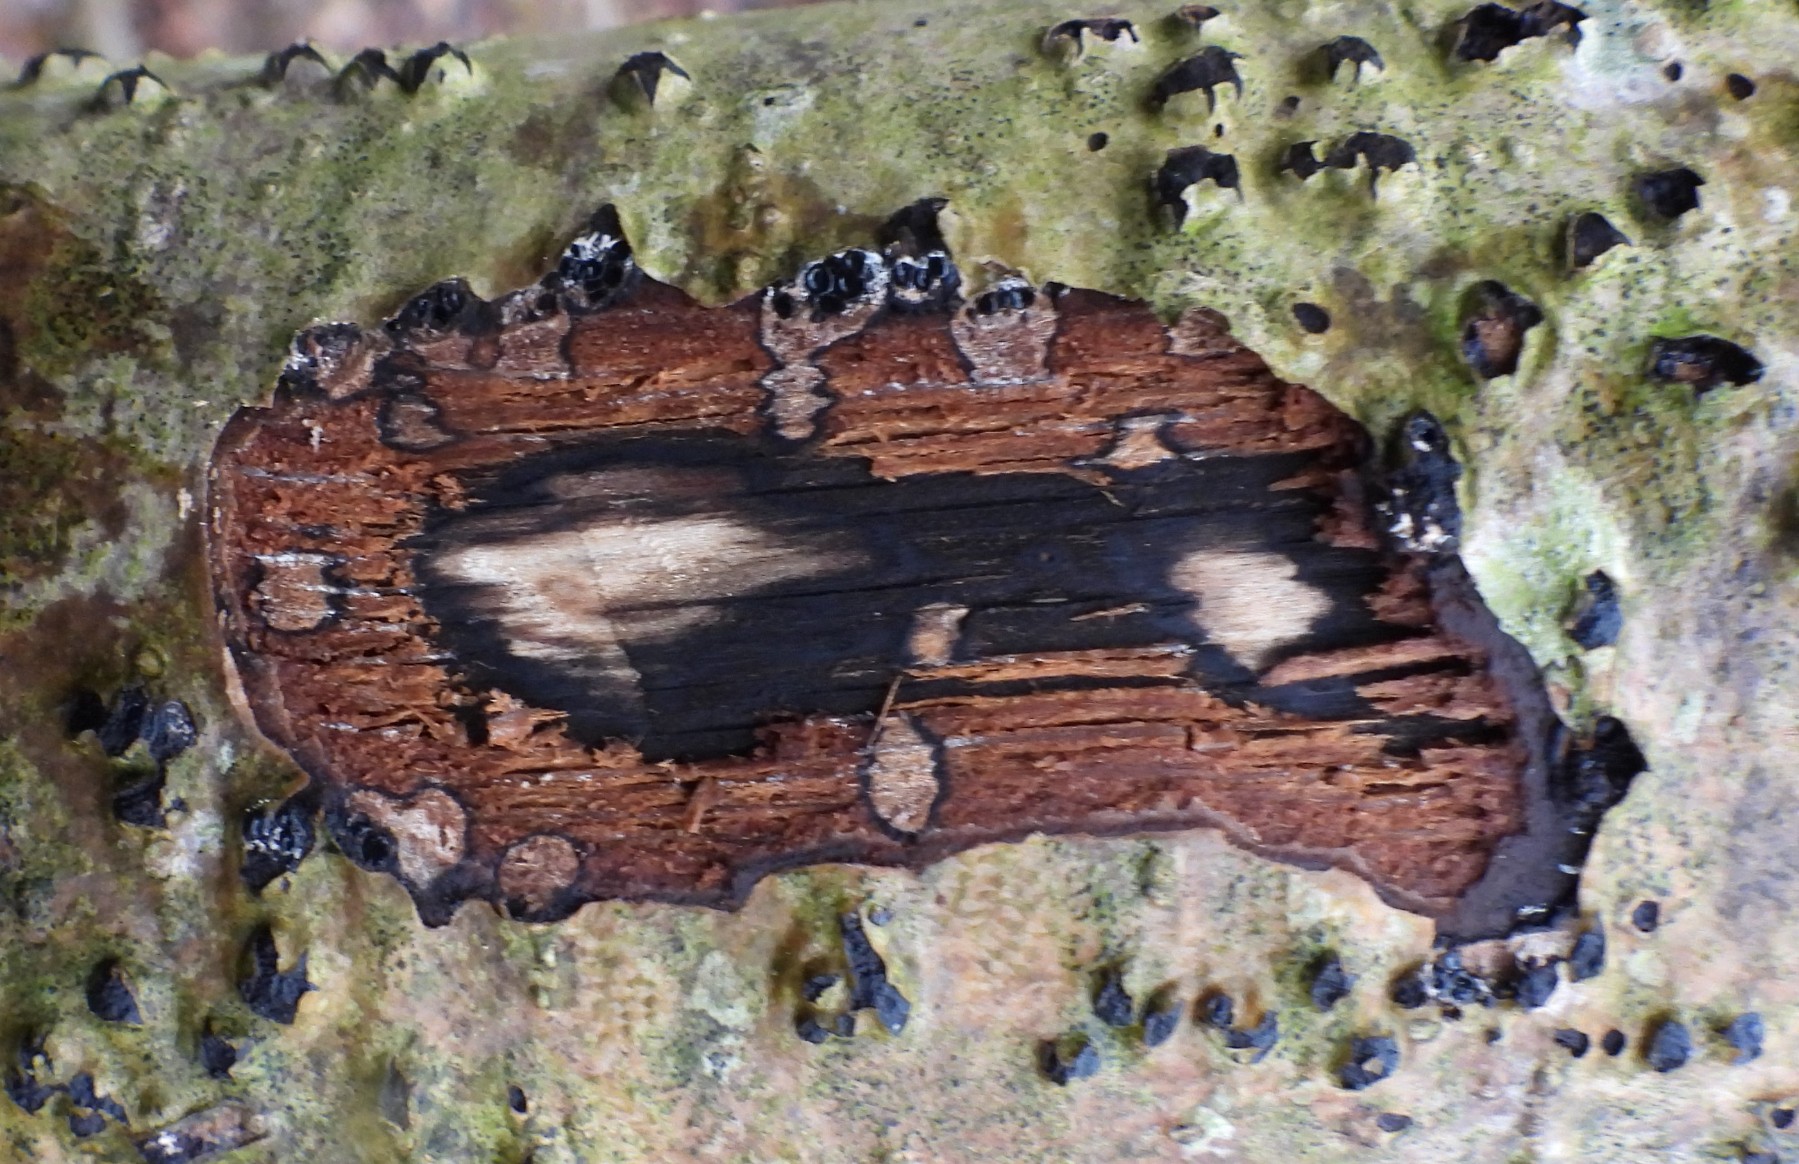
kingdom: Fungi
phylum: Ascomycota
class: Sordariomycetes
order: Xylariales
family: Diatrypaceae
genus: Diatrypella
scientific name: Diatrypella favacea
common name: klemt kulskorpe
